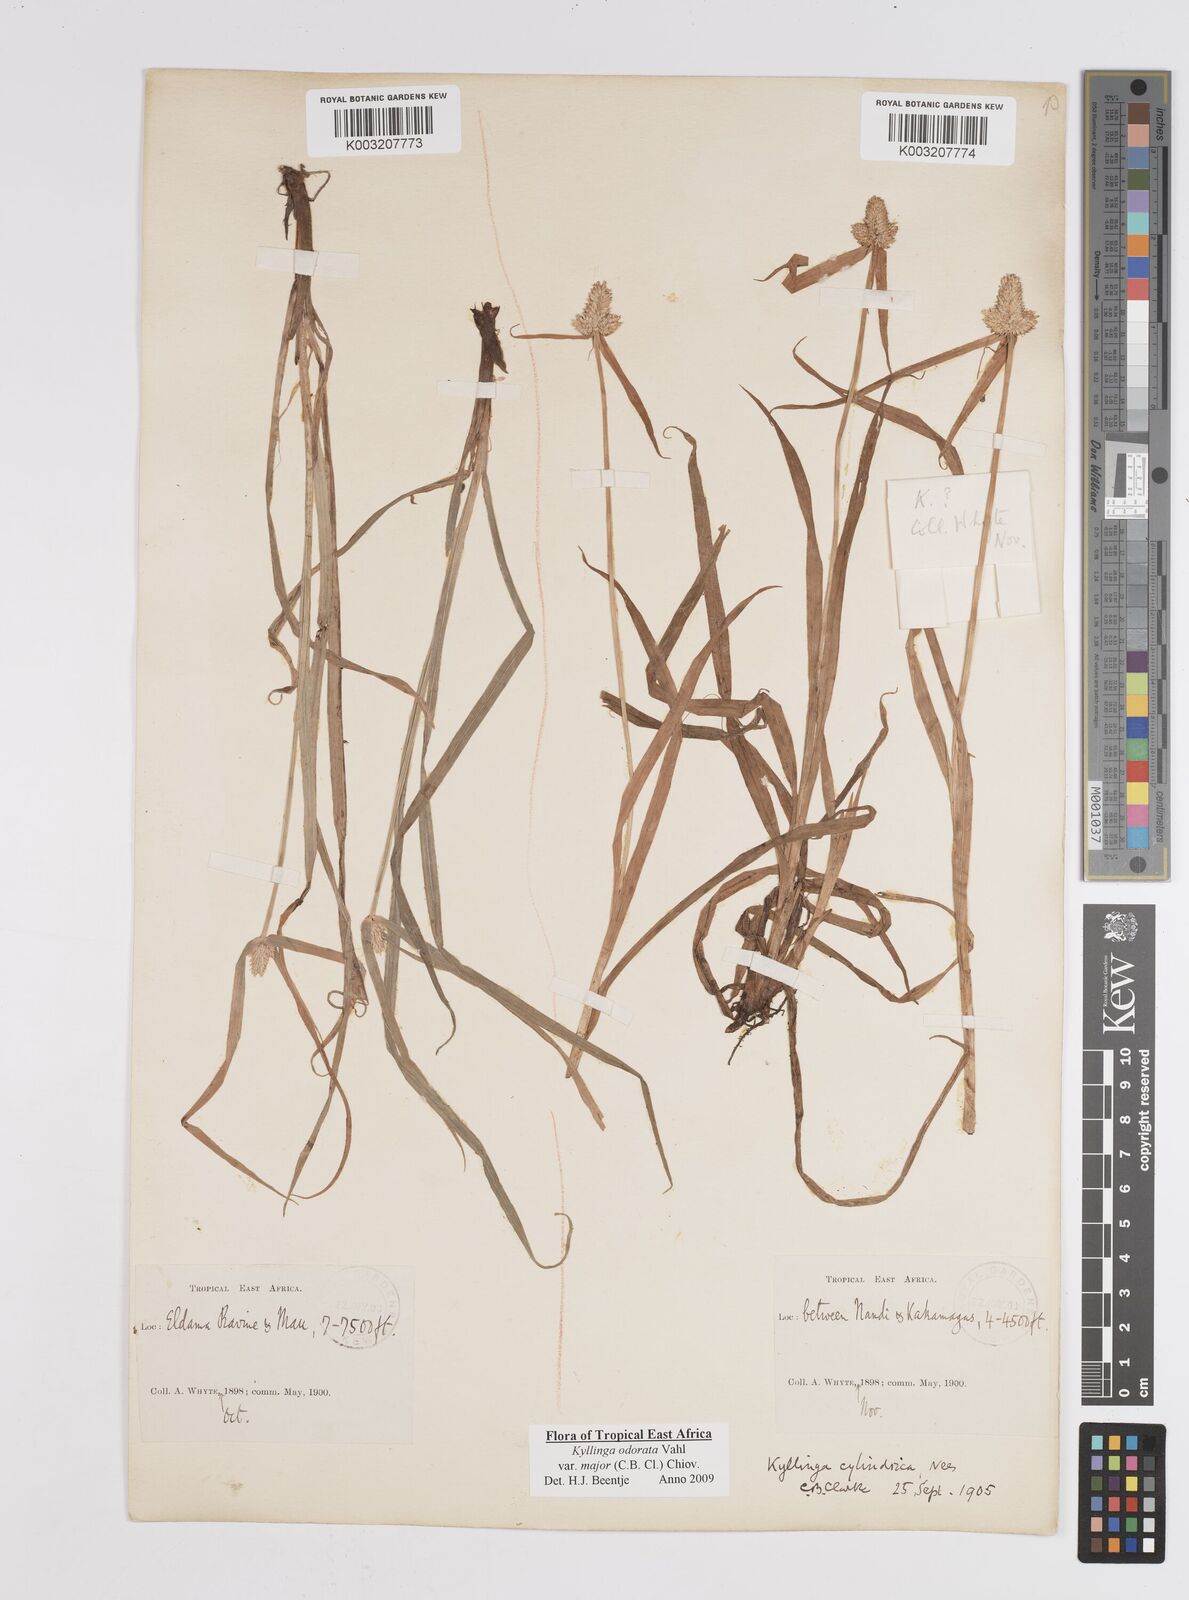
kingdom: Plantae
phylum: Tracheophyta
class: Liliopsida
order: Poales
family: Cyperaceae
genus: Cyperus
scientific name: Cyperus
